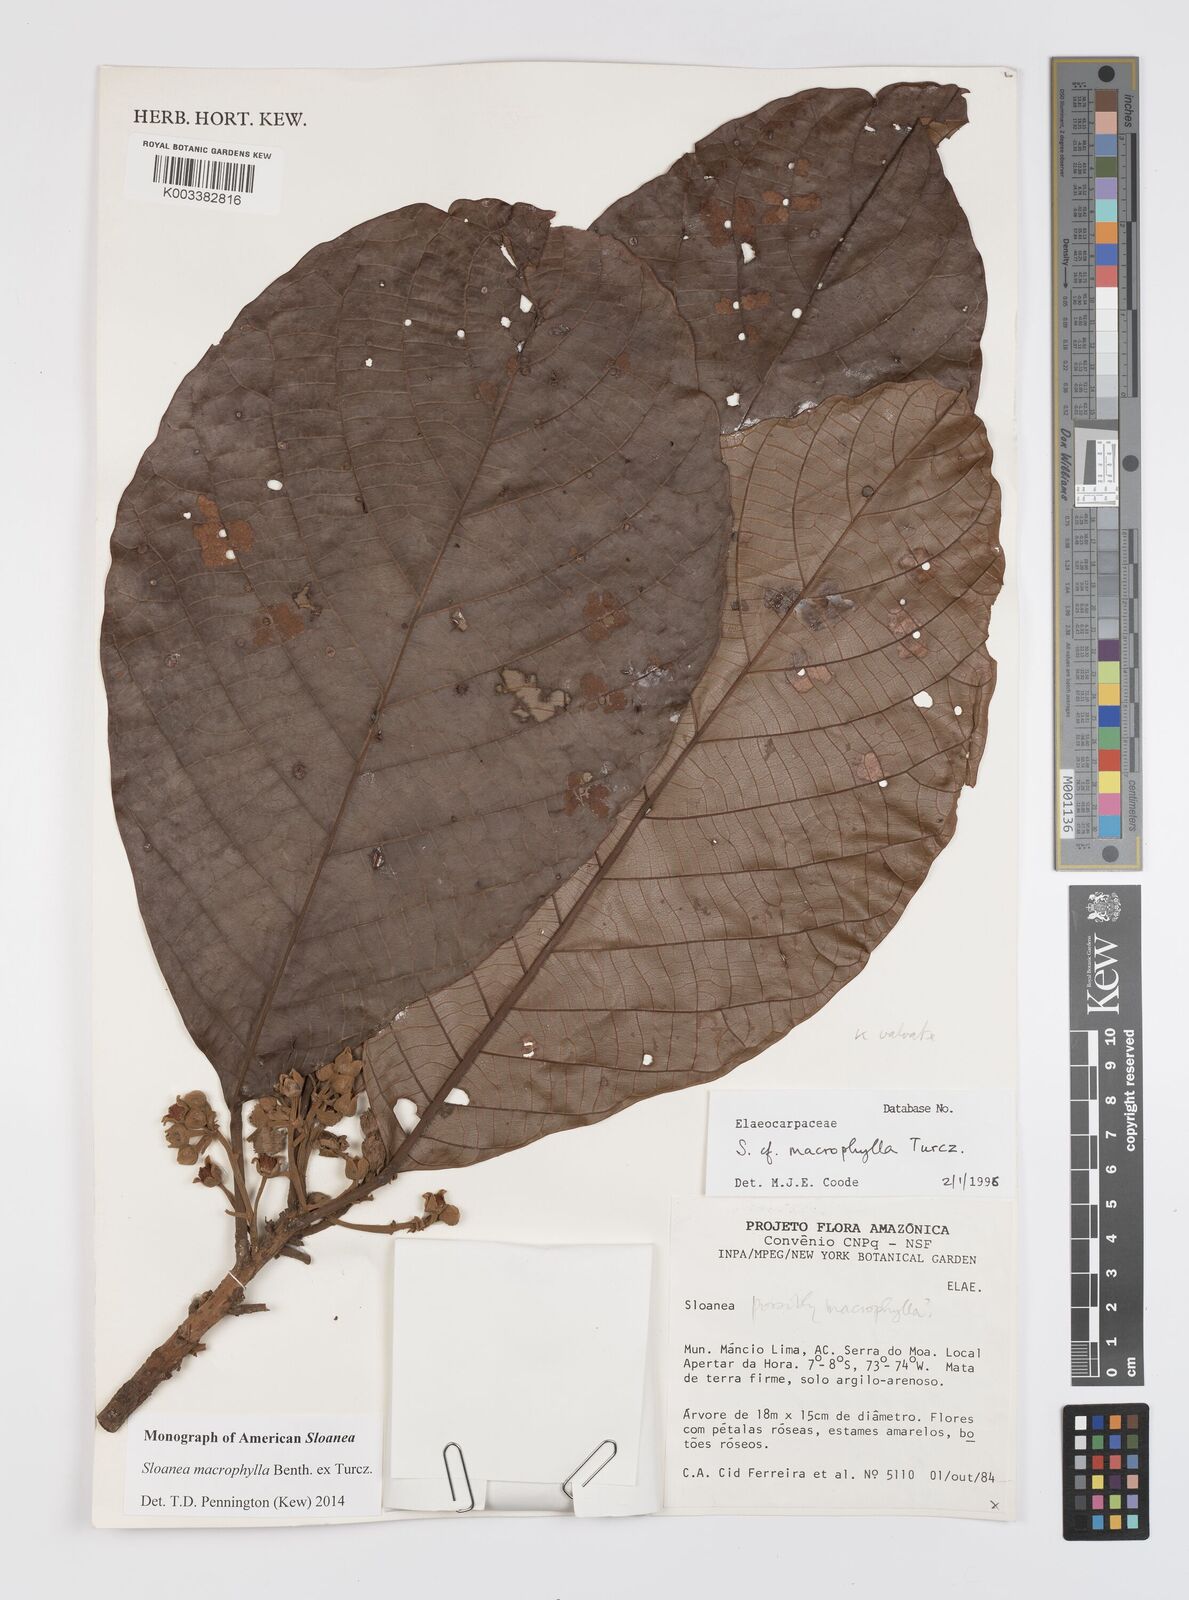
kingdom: Plantae
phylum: Tracheophyta
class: Magnoliopsida
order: Oxalidales
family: Elaeocarpaceae
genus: Sloanea
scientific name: Sloanea macrophylla
